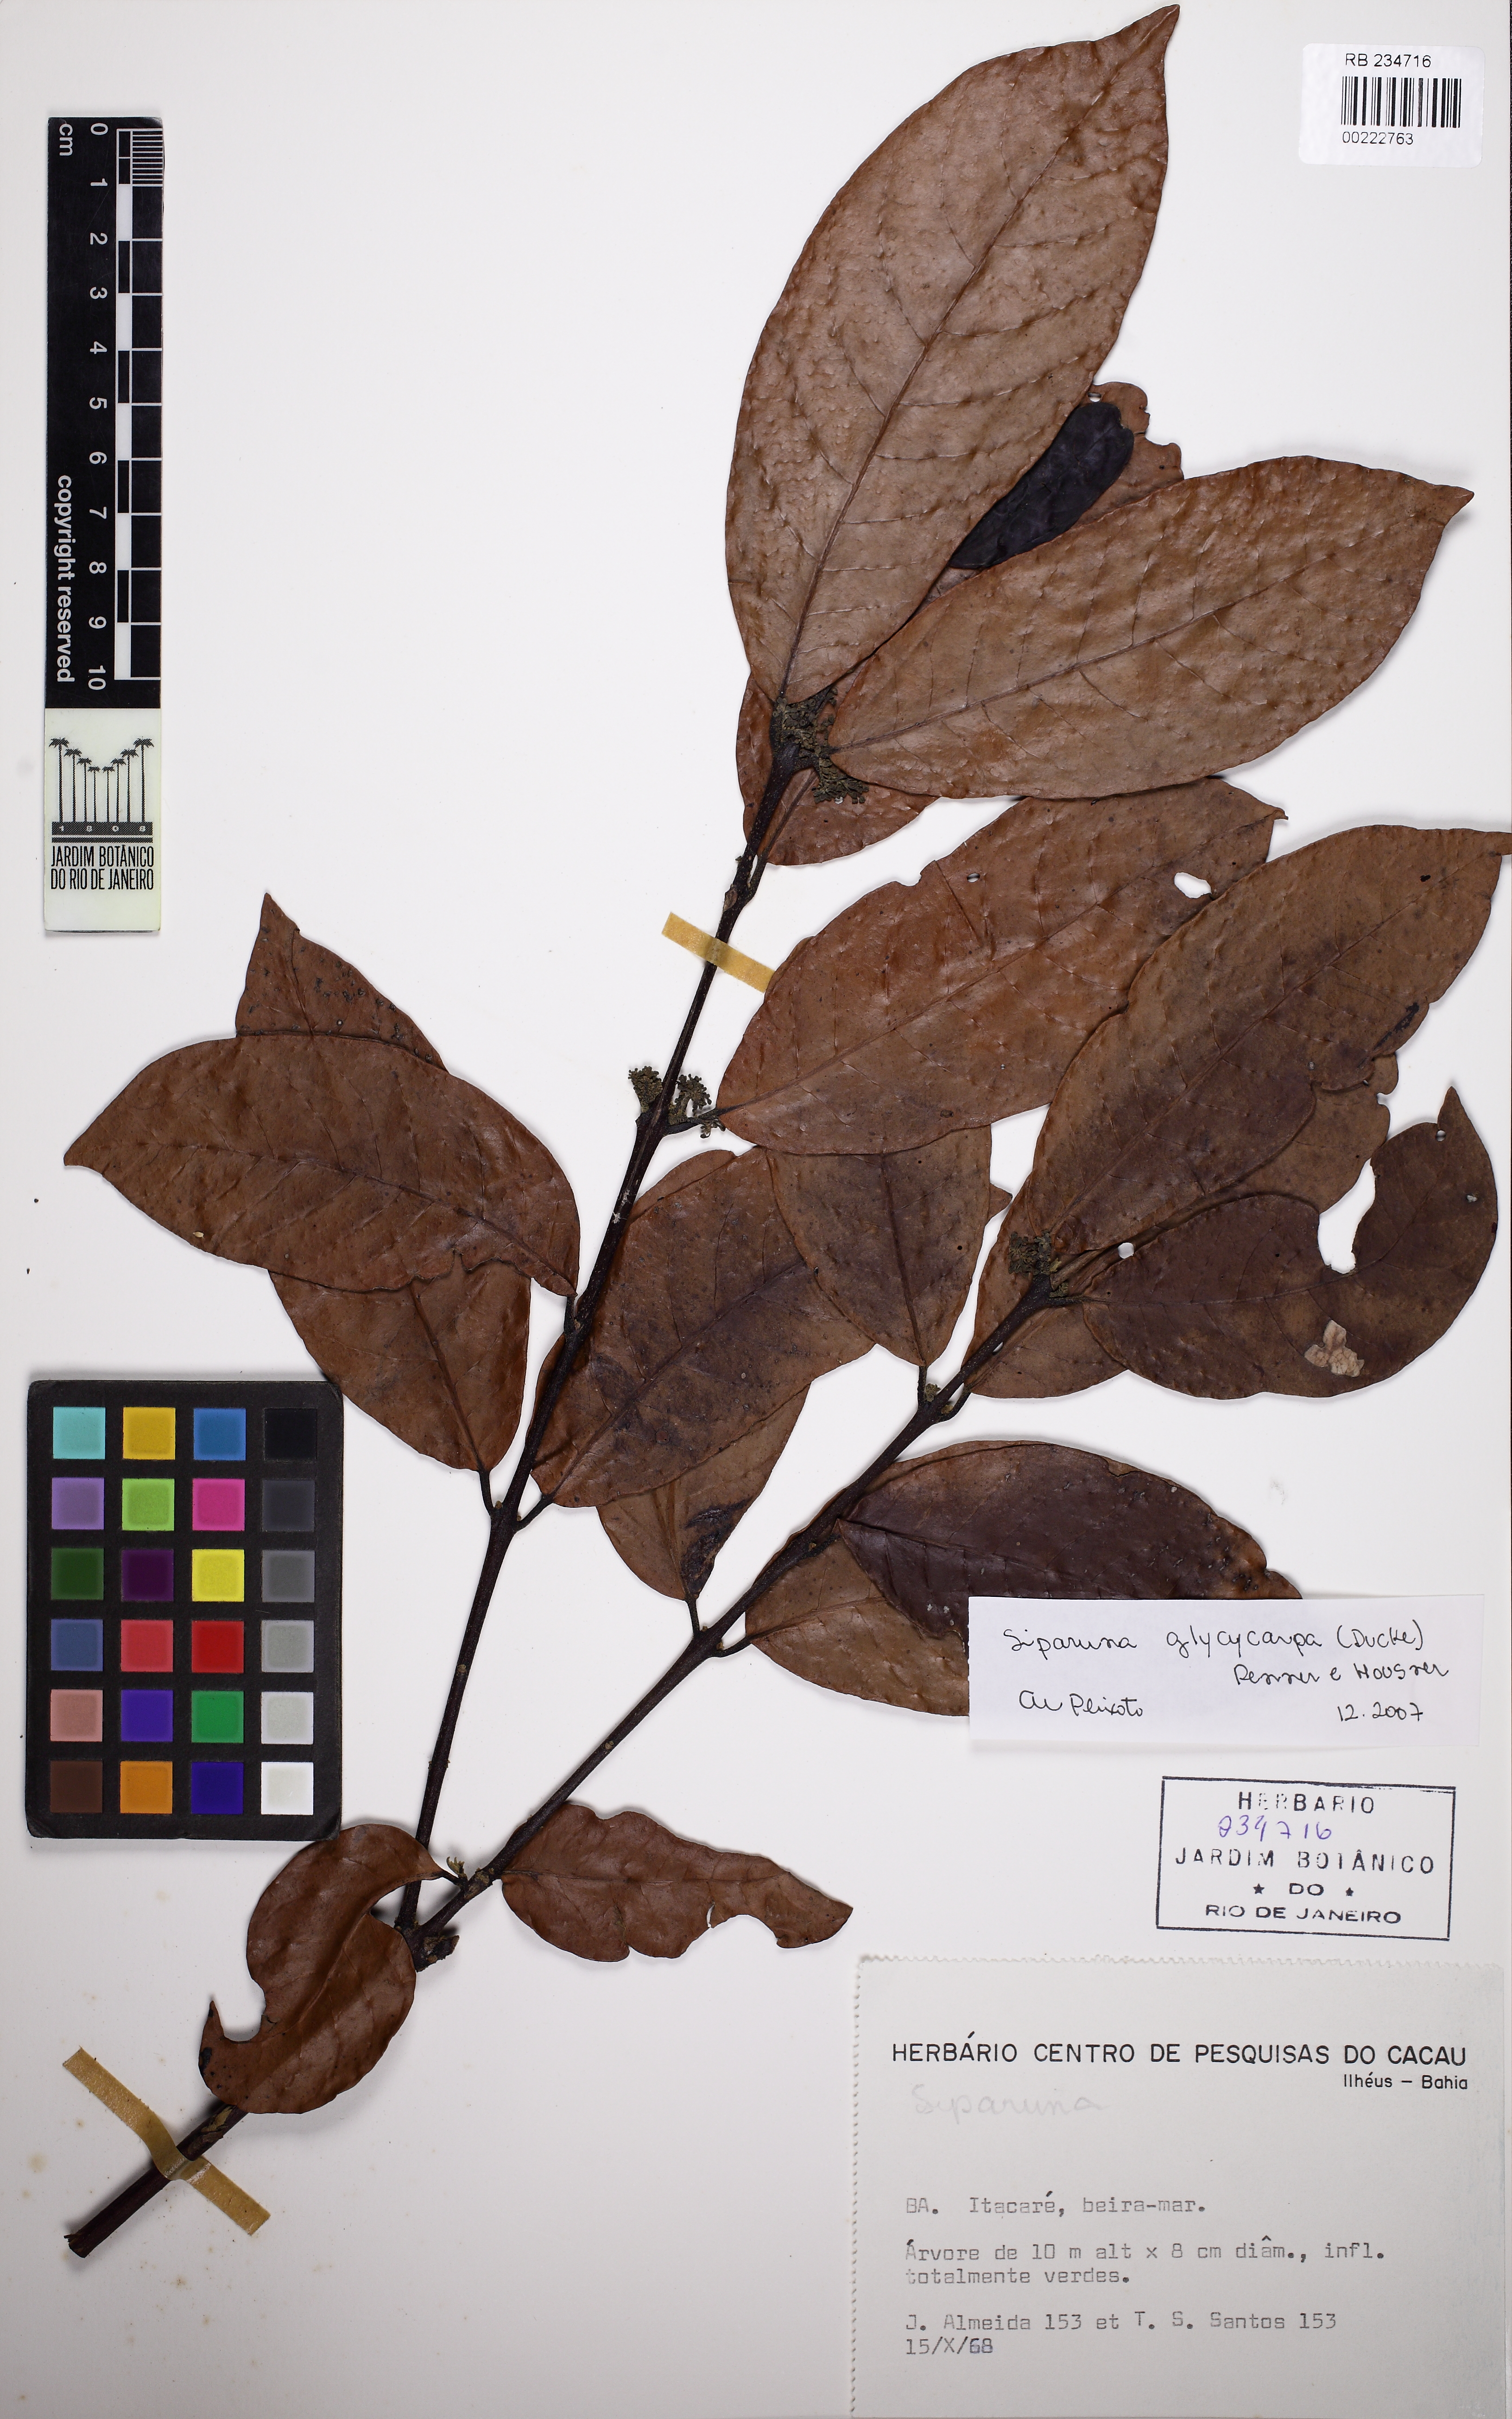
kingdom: Plantae
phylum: Tracheophyta
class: Magnoliopsida
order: Laurales
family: Siparunaceae
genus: Siparuna
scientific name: Siparuna glycycarpa
